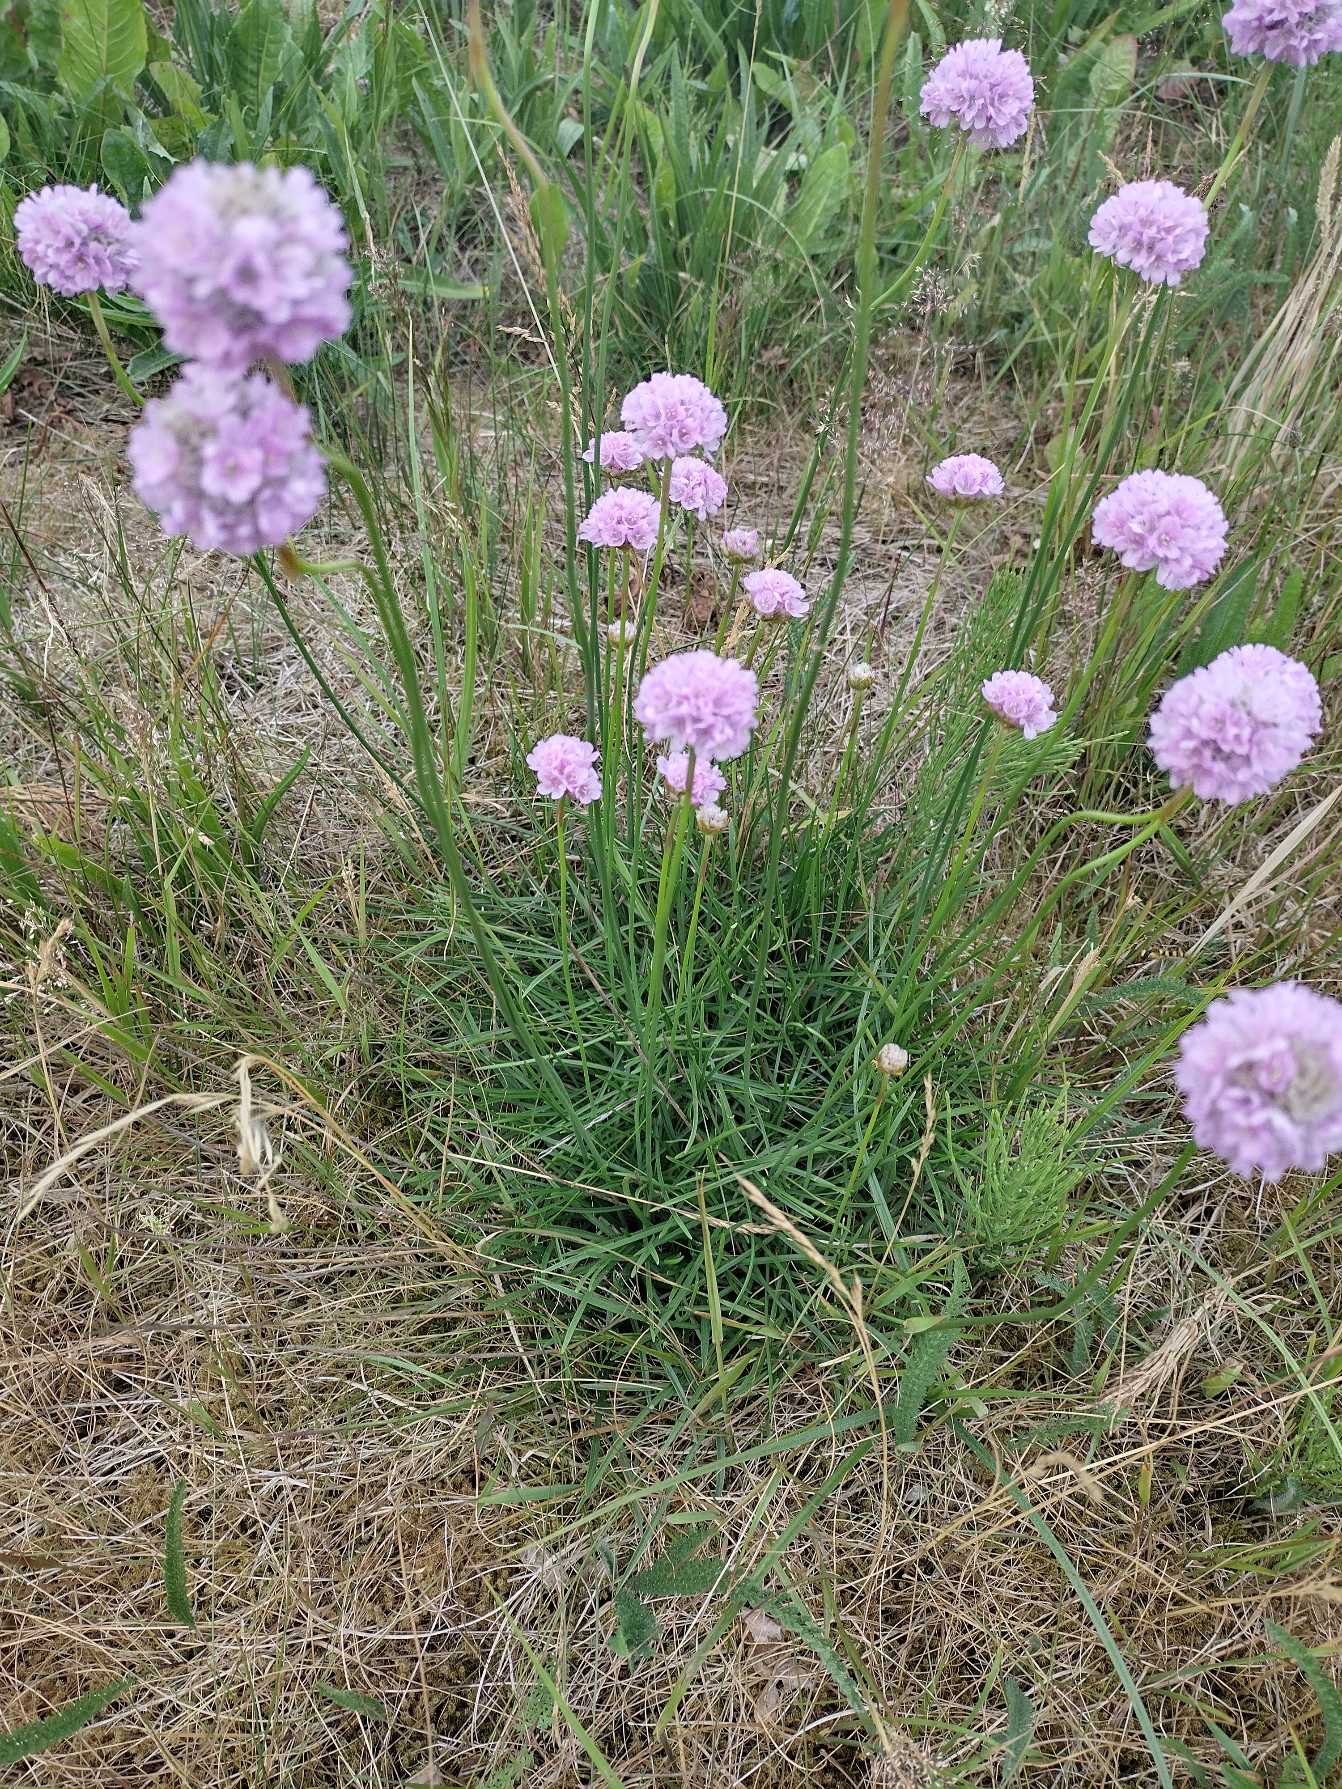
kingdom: Plantae
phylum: Tracheophyta
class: Magnoliopsida
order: Caryophyllales
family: Plumbaginaceae
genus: Armeria
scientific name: Armeria maritima
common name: Engelskgræs
